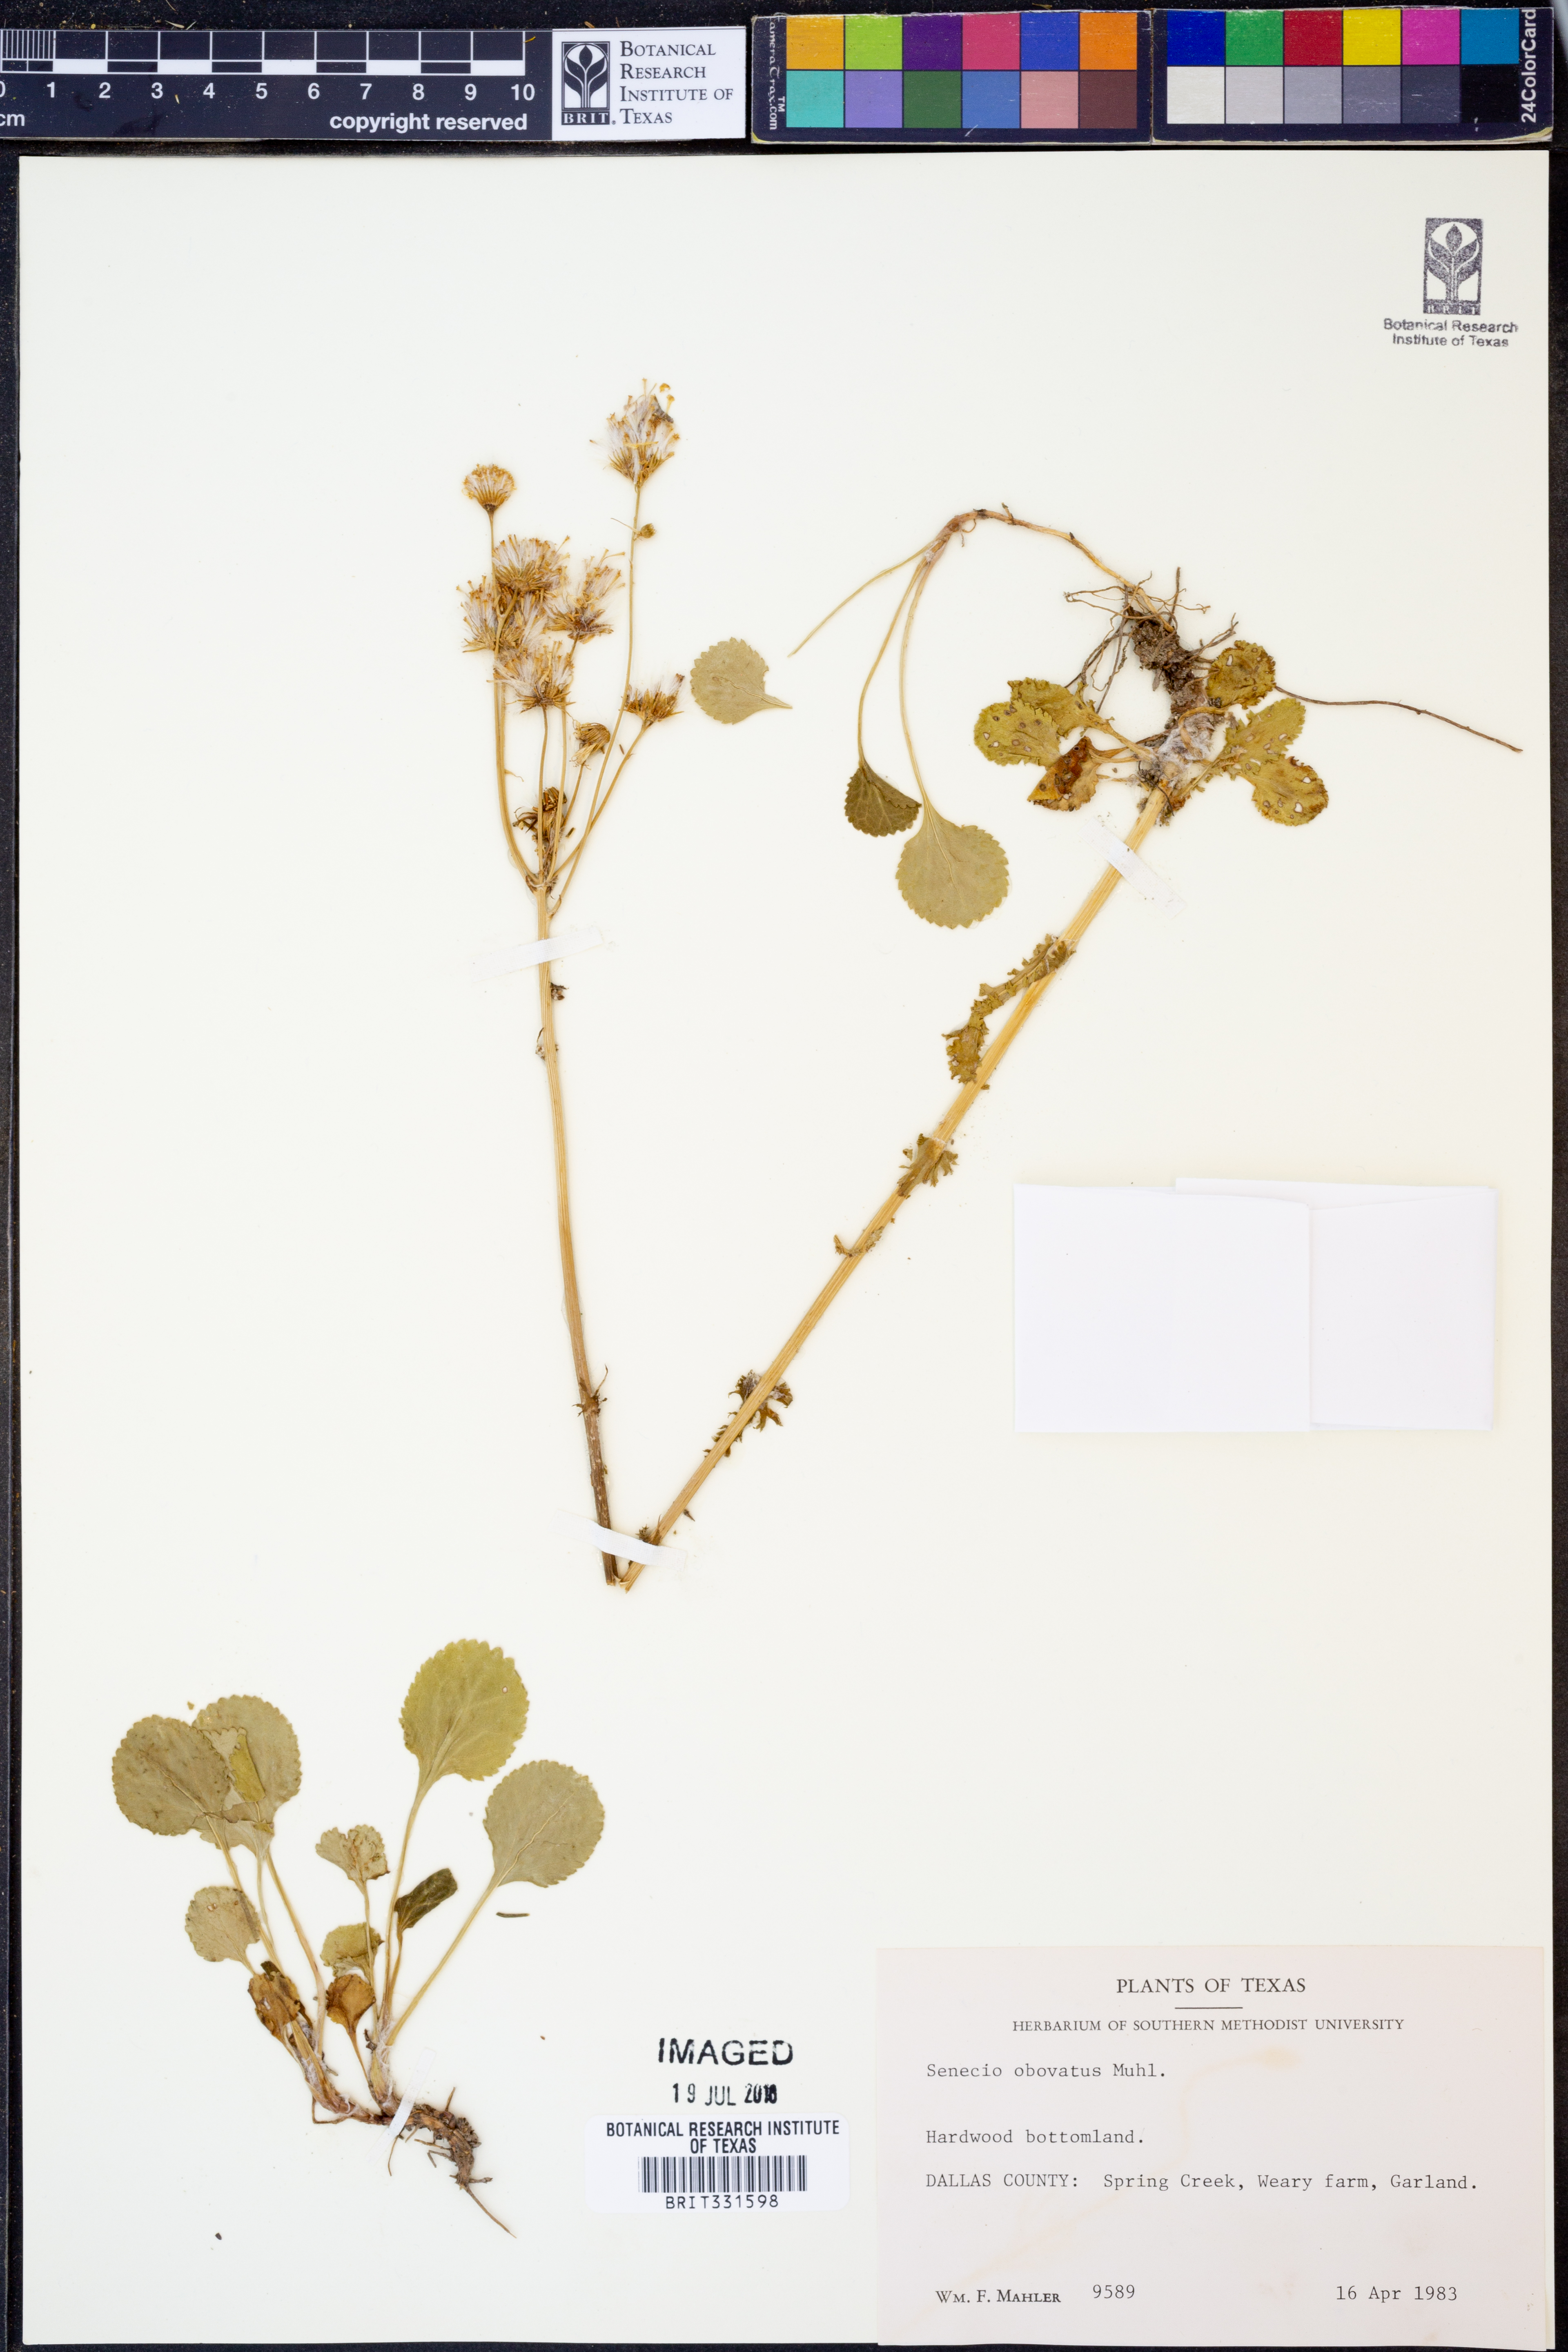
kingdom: Plantae
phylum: Tracheophyta
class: Magnoliopsida
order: Asterales
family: Asteraceae
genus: Senecio
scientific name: Senecio provincialis
